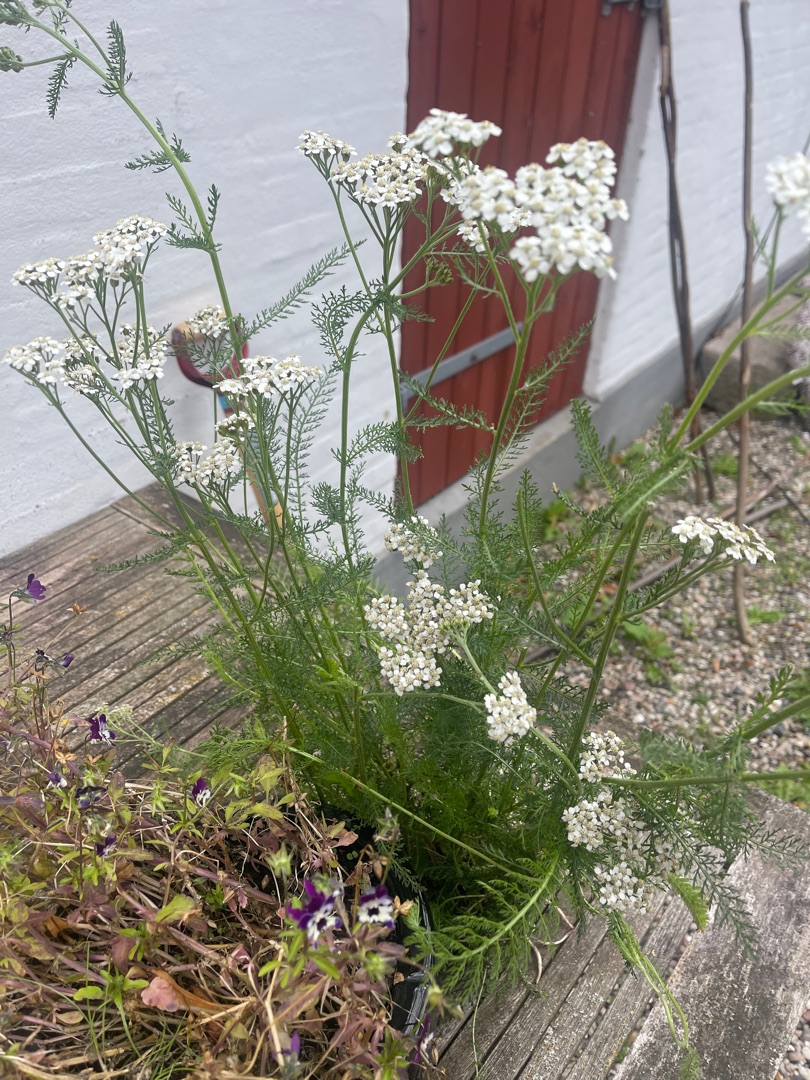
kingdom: Plantae
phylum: Tracheophyta
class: Magnoliopsida
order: Asterales
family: Asteraceae
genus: Achillea
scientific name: Achillea millefolium
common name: Almindelig røllike
